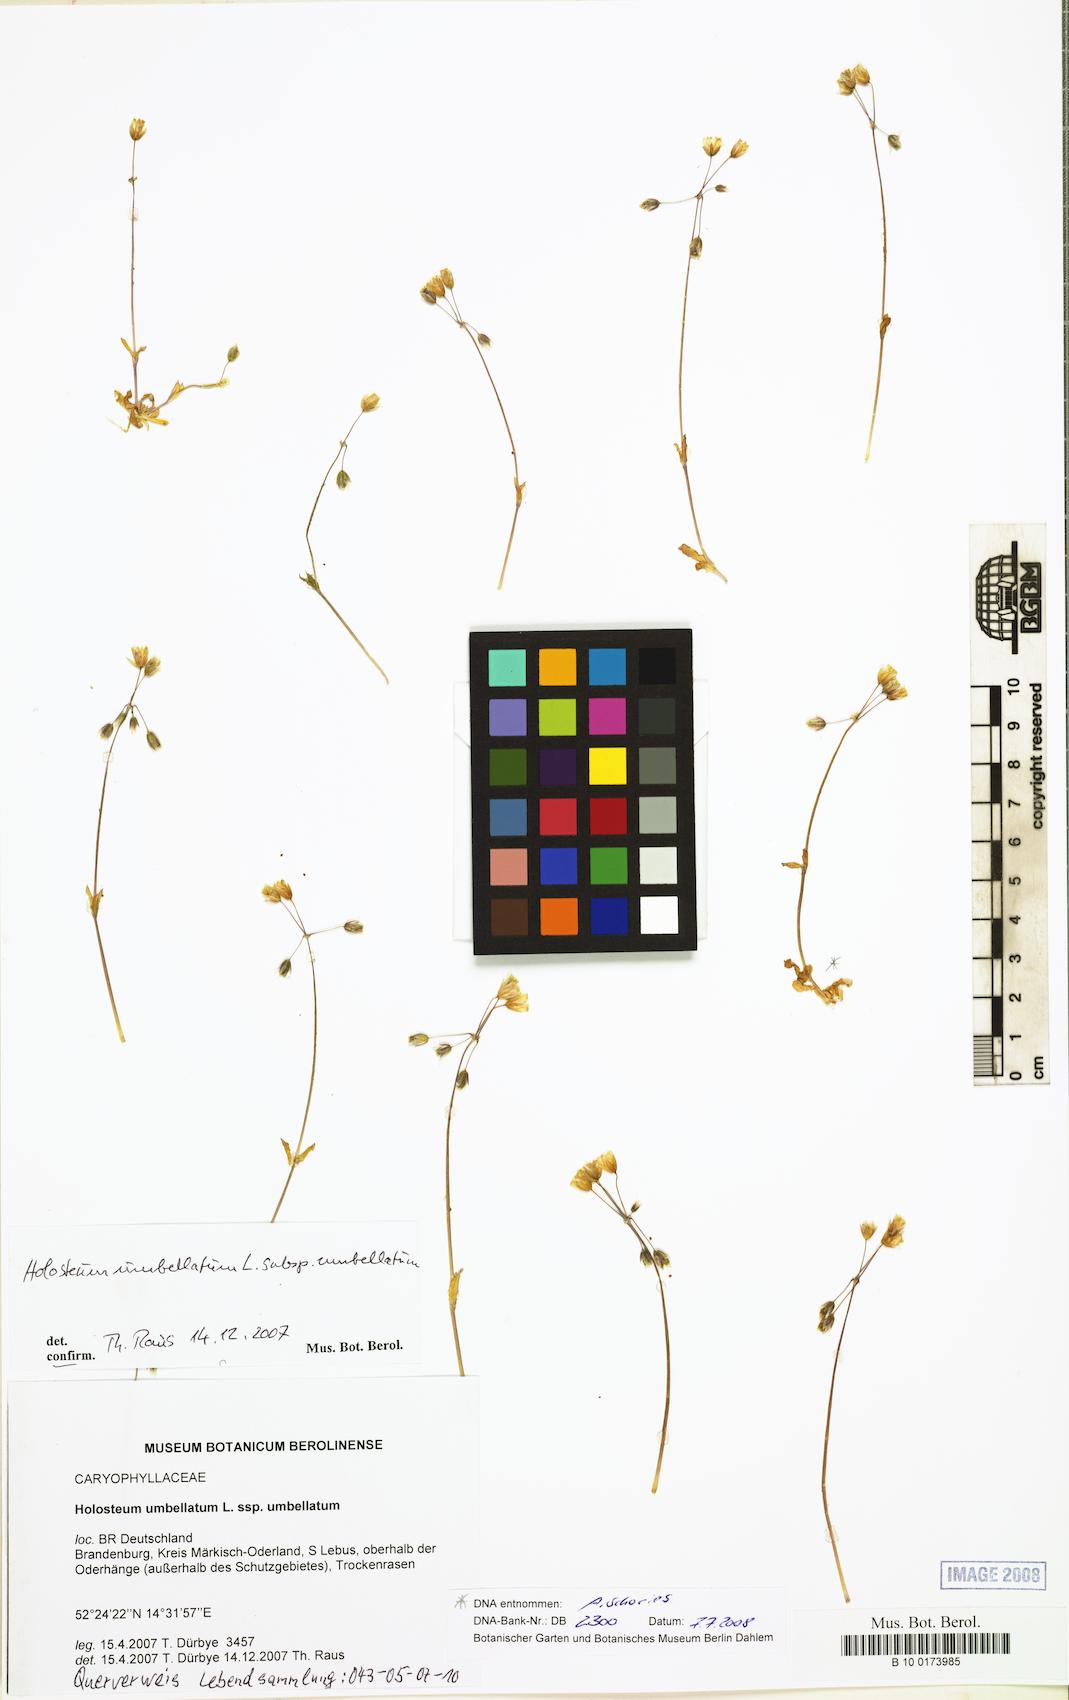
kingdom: Plantae
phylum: Tracheophyta
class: Magnoliopsida
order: Caryophyllales
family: Caryophyllaceae
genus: Holosteum
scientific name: Holosteum umbellatum
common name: Jagged chickweed
